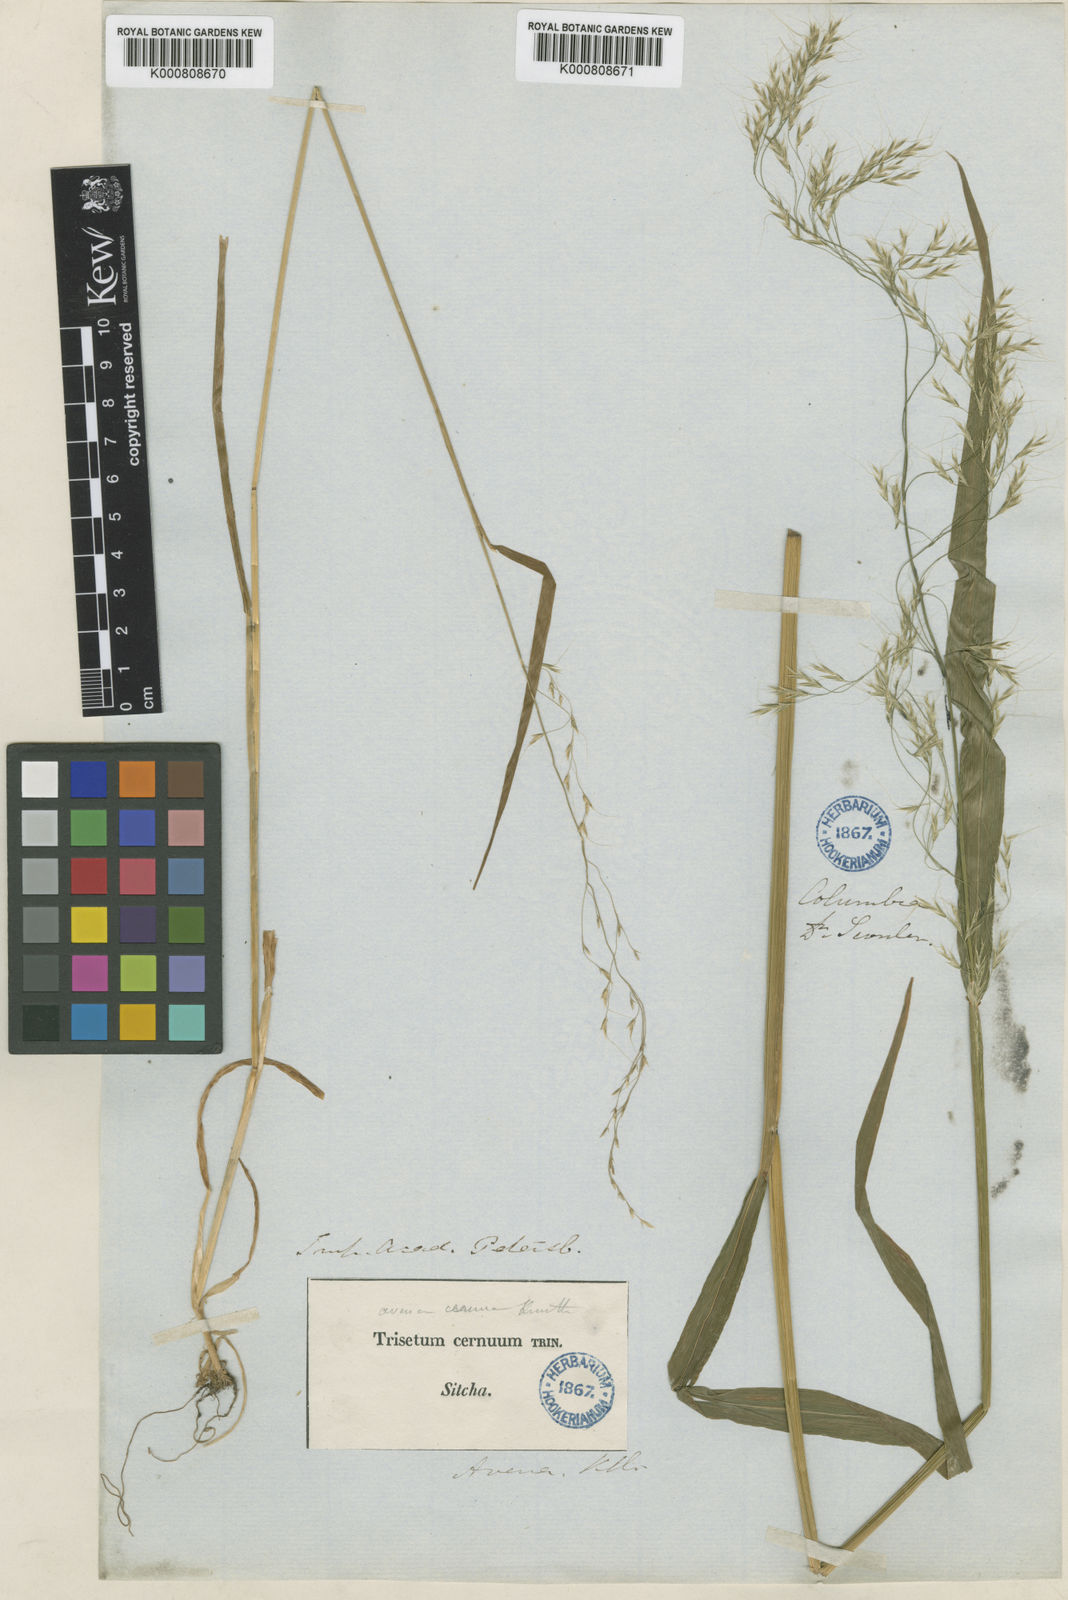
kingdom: Plantae
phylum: Tracheophyta
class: Liliopsida
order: Poales
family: Poaceae
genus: Graphephorum
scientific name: Graphephorum cernuum
